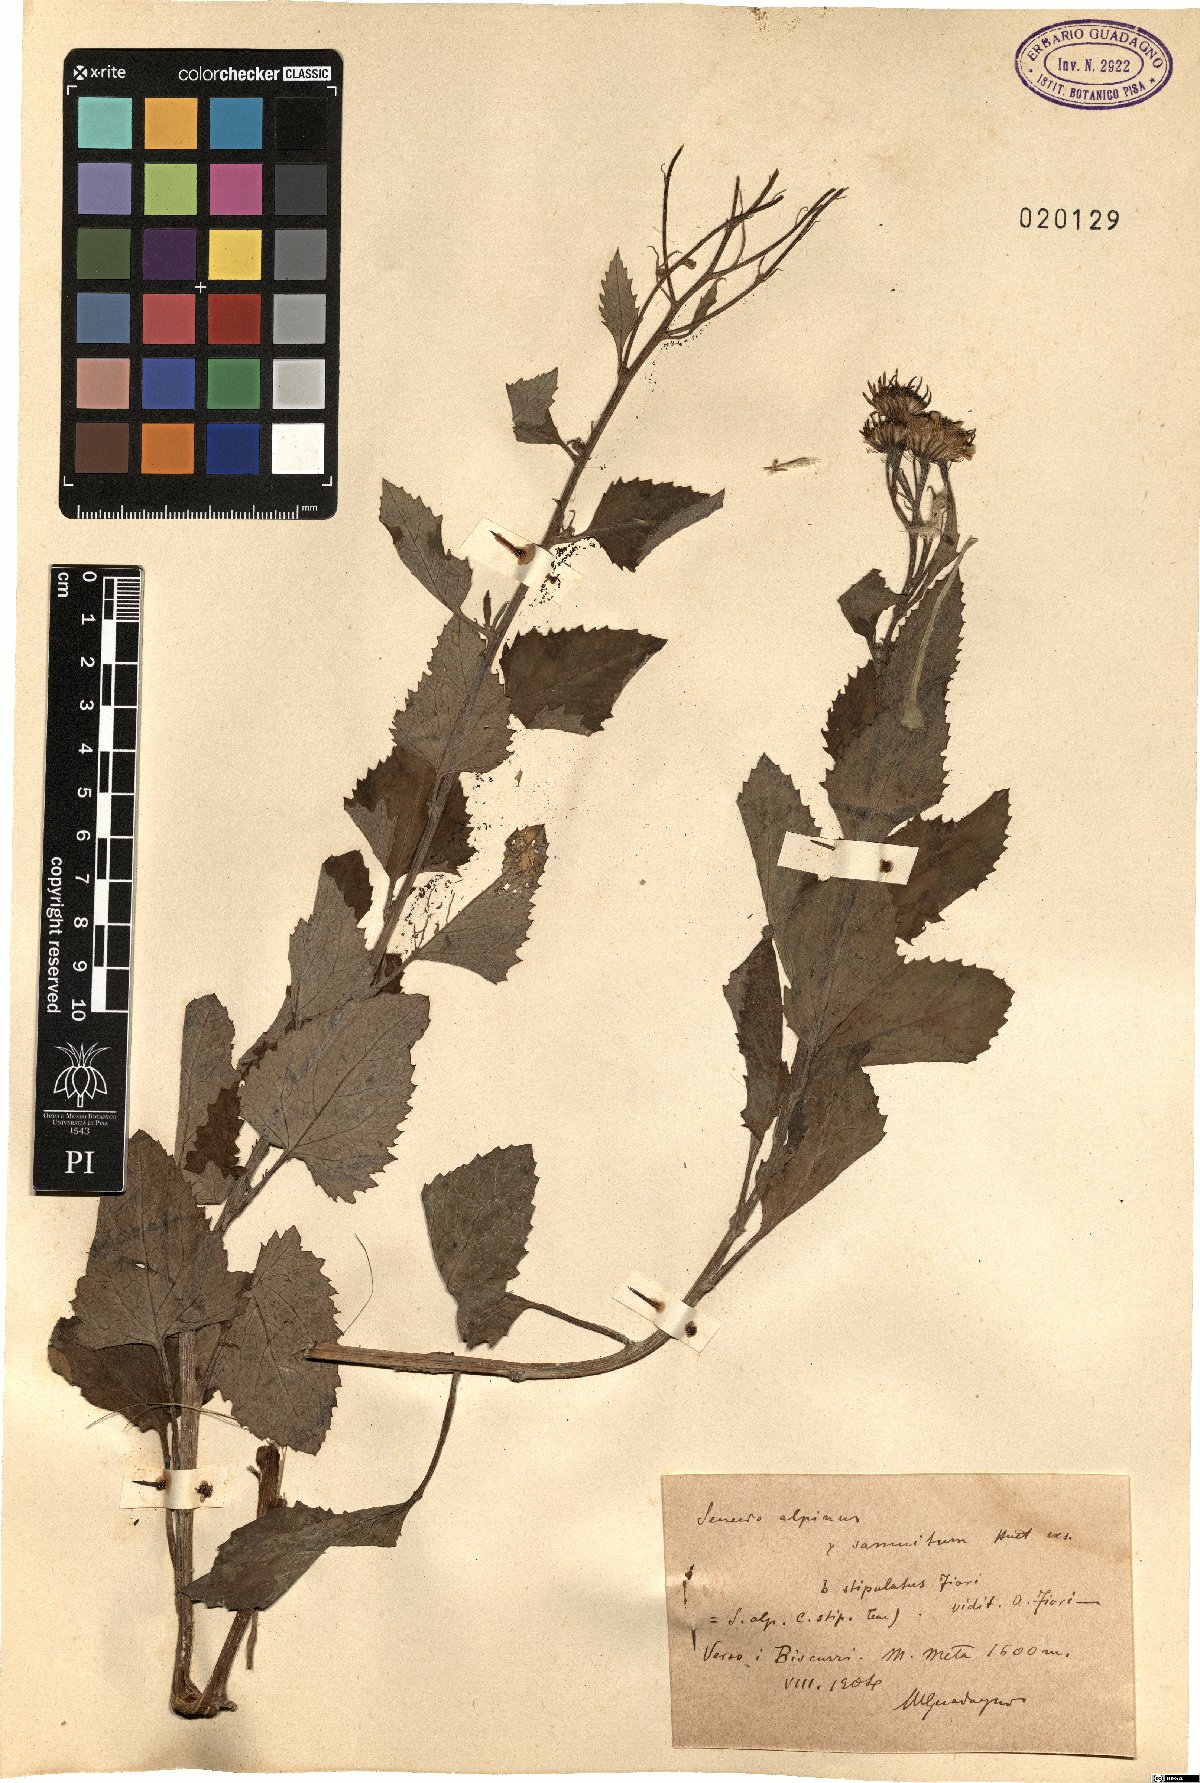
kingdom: Plantae
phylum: Tracheophyta
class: Magnoliopsida
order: Asterales
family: Asteraceae
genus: Jacobaea
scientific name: Jacobaea alpina
